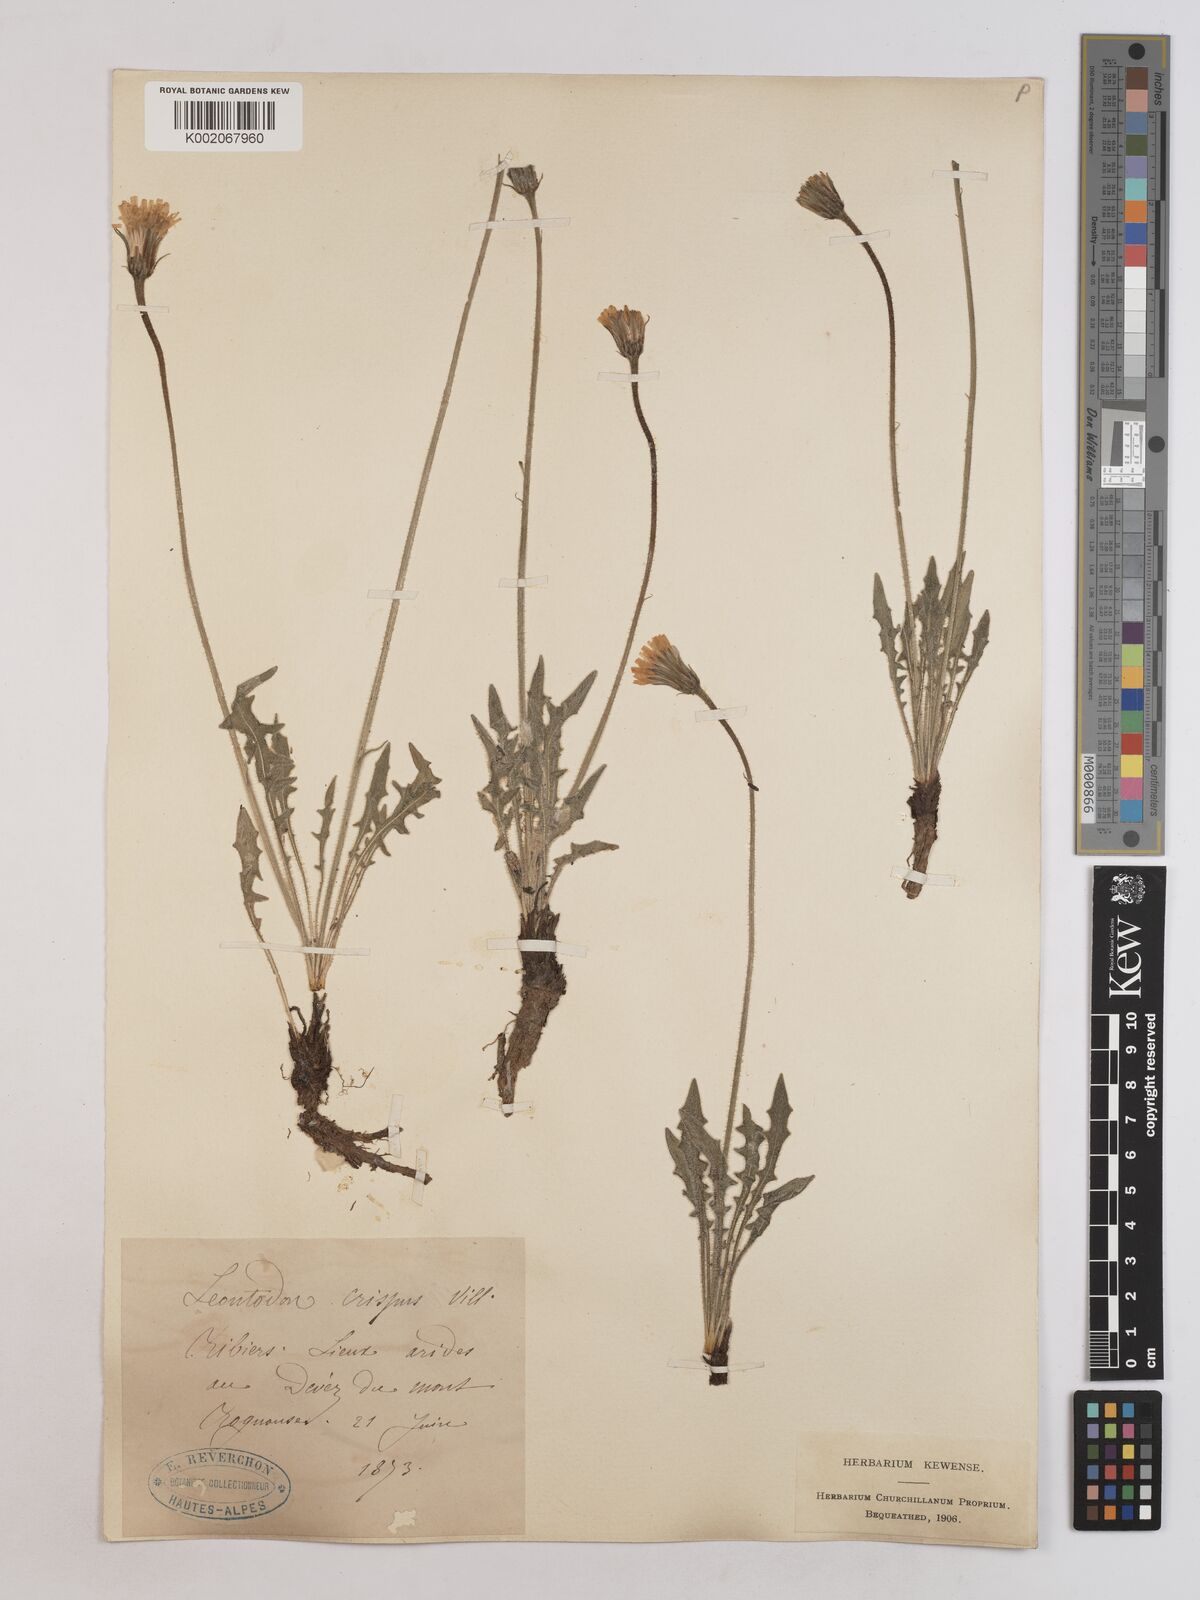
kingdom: Plantae
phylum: Tracheophyta
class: Magnoliopsida
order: Asterales
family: Asteraceae
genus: Leontodon
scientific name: Leontodon crispus
